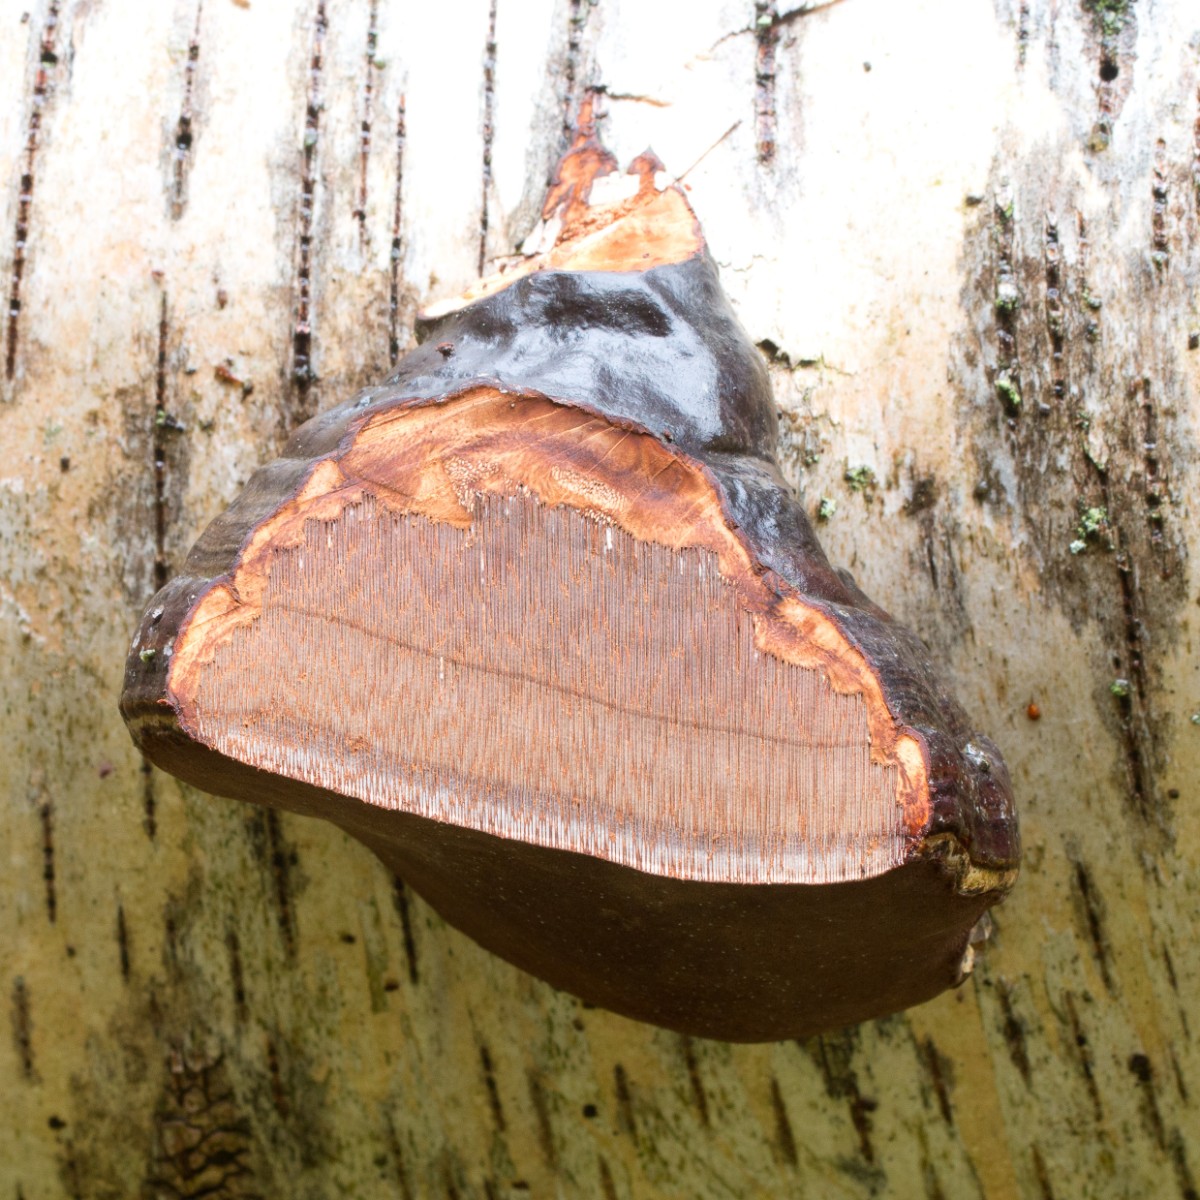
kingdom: Fungi
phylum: Basidiomycota
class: Agaricomycetes
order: Polyporales
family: Polyporaceae
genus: Fomes
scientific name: Fomes fomentarius
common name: tøndersvamp
